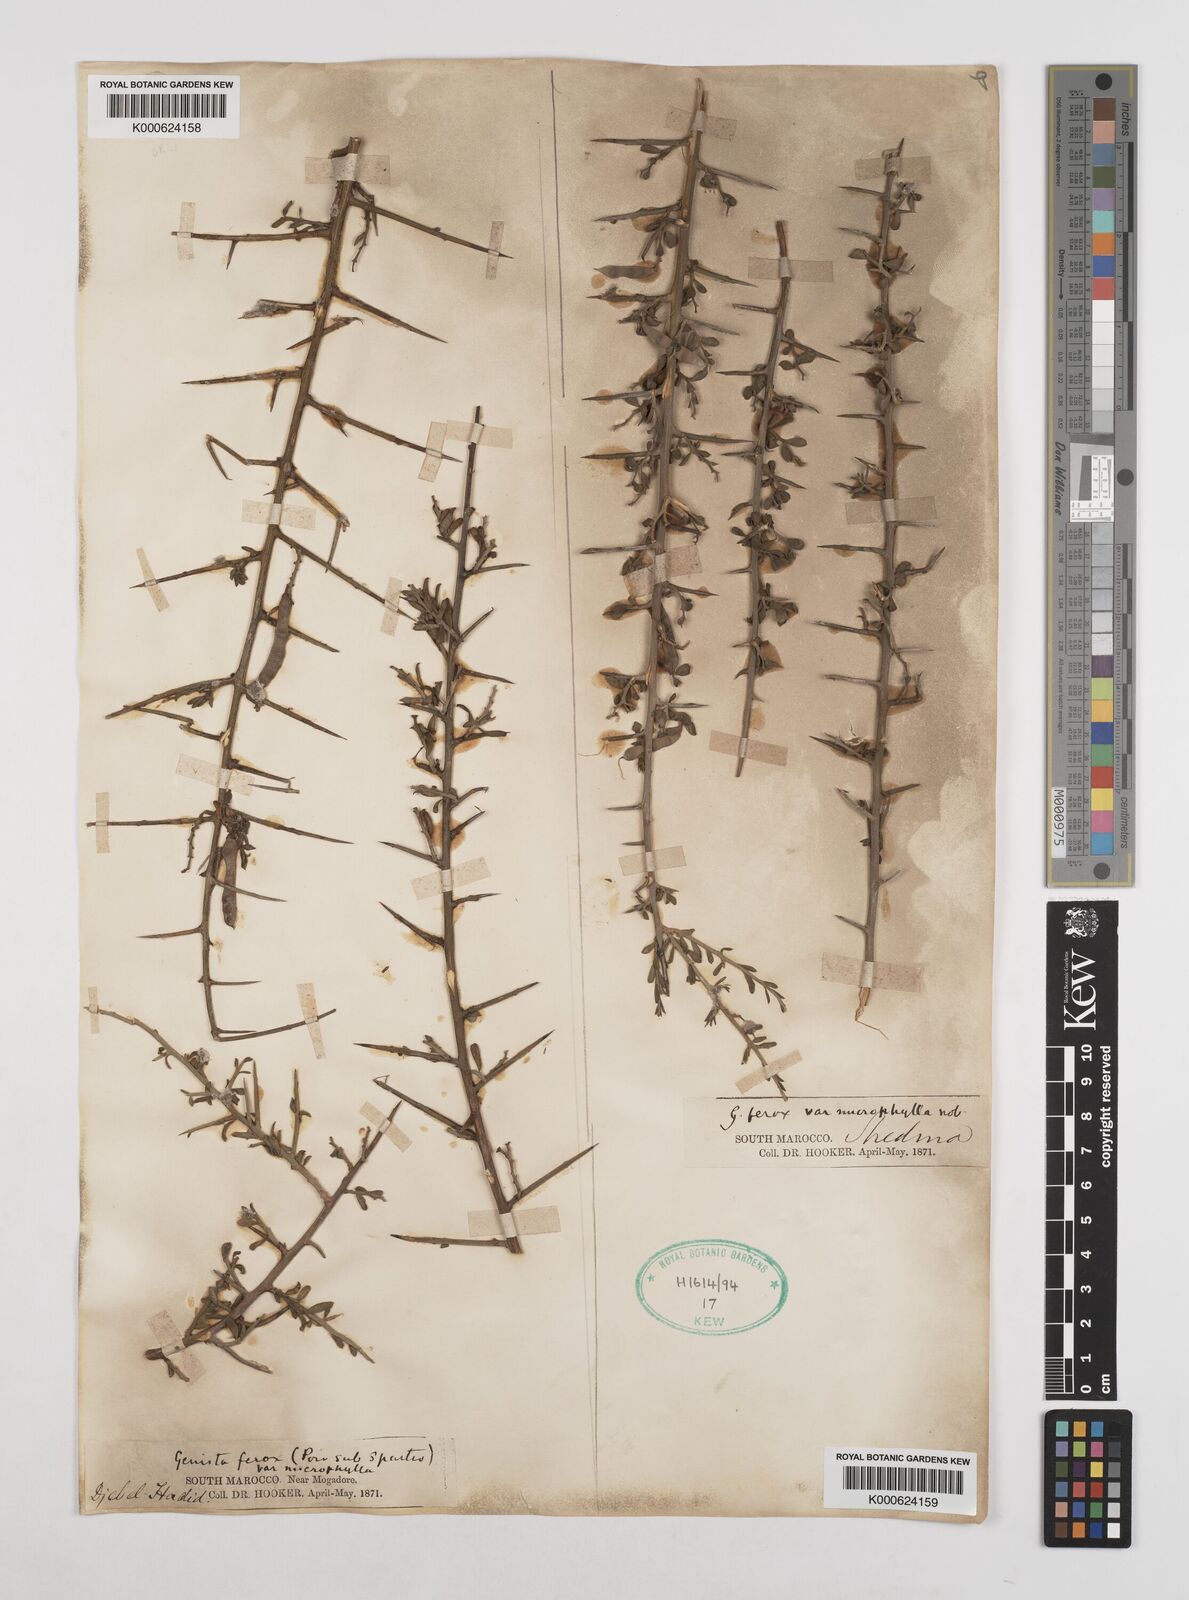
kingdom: Plantae
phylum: Tracheophyta
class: Magnoliopsida
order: Fabales
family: Fabaceae
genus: Genista
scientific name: Genista
